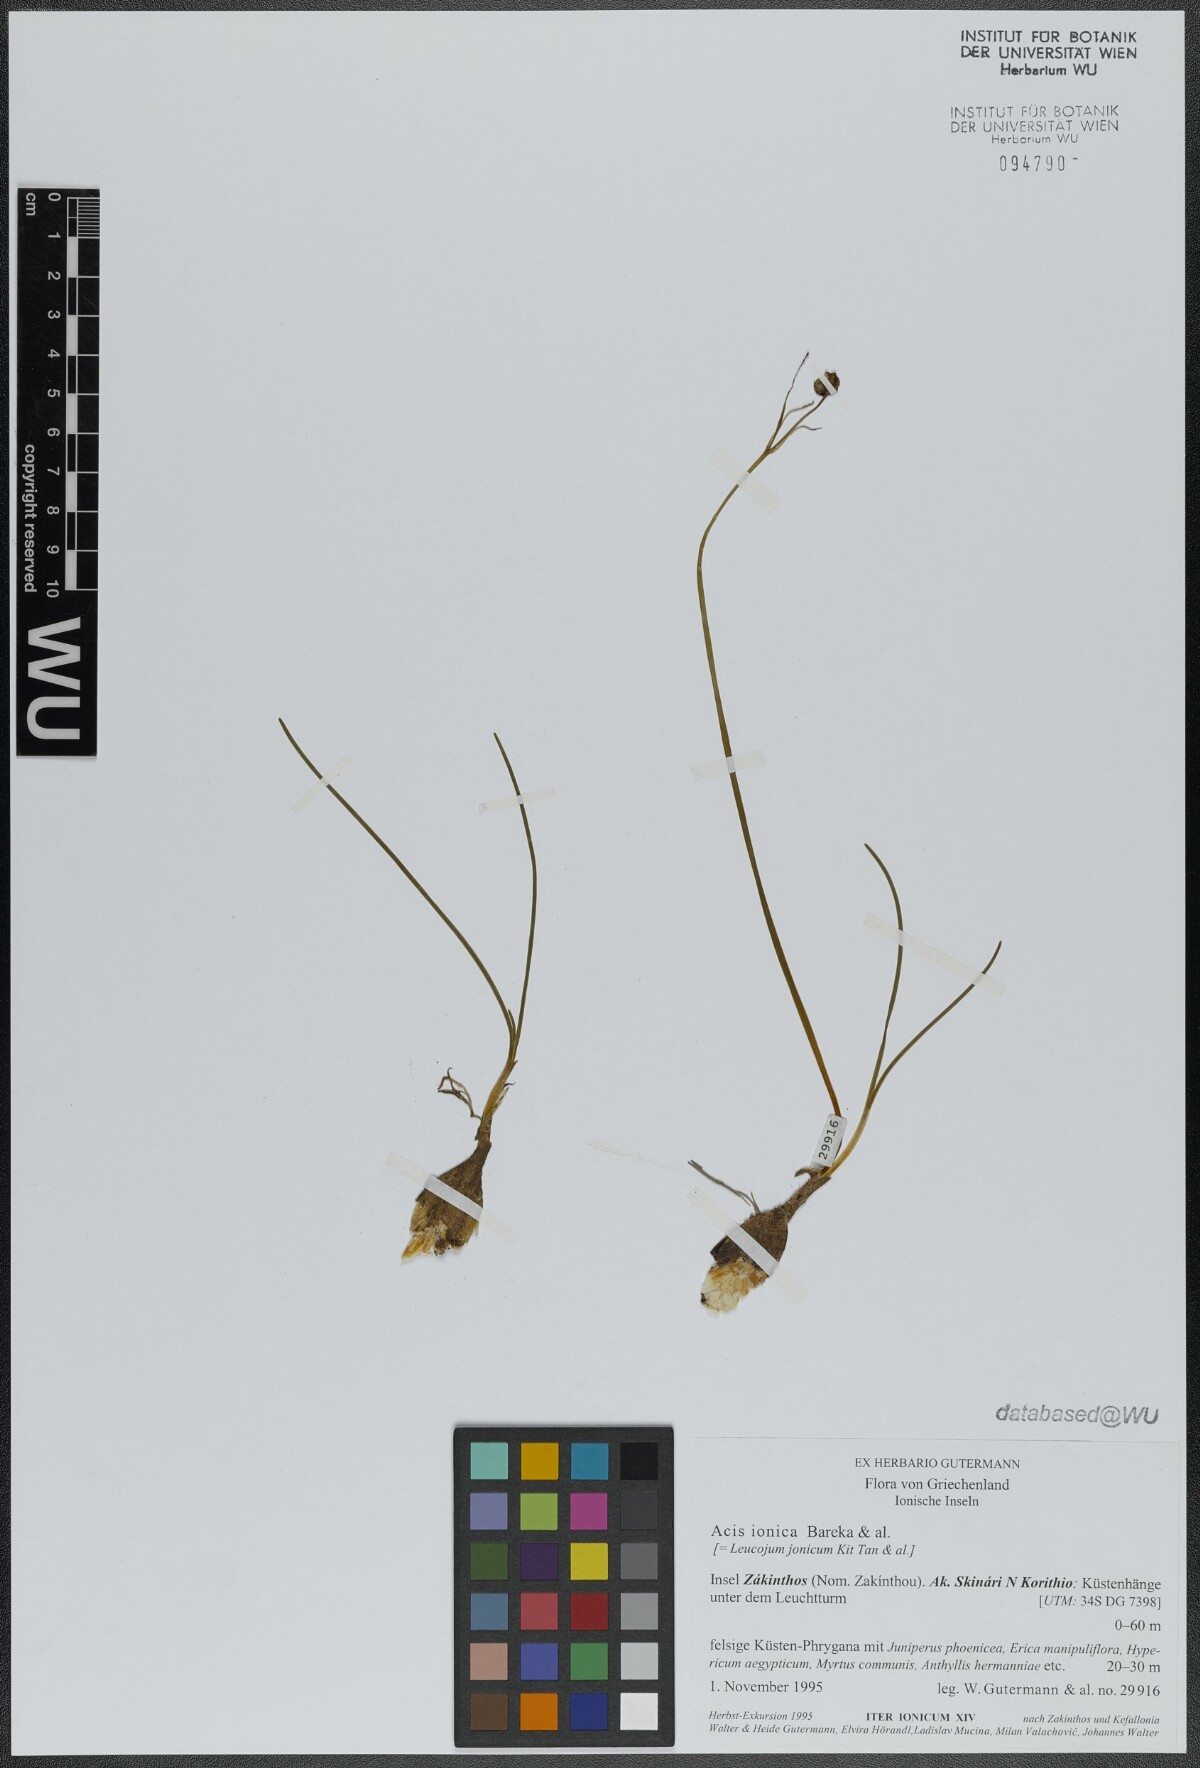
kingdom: Plantae
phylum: Tracheophyta
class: Liliopsida
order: Asparagales
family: Amaryllidaceae
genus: Acis
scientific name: Acis ionica
